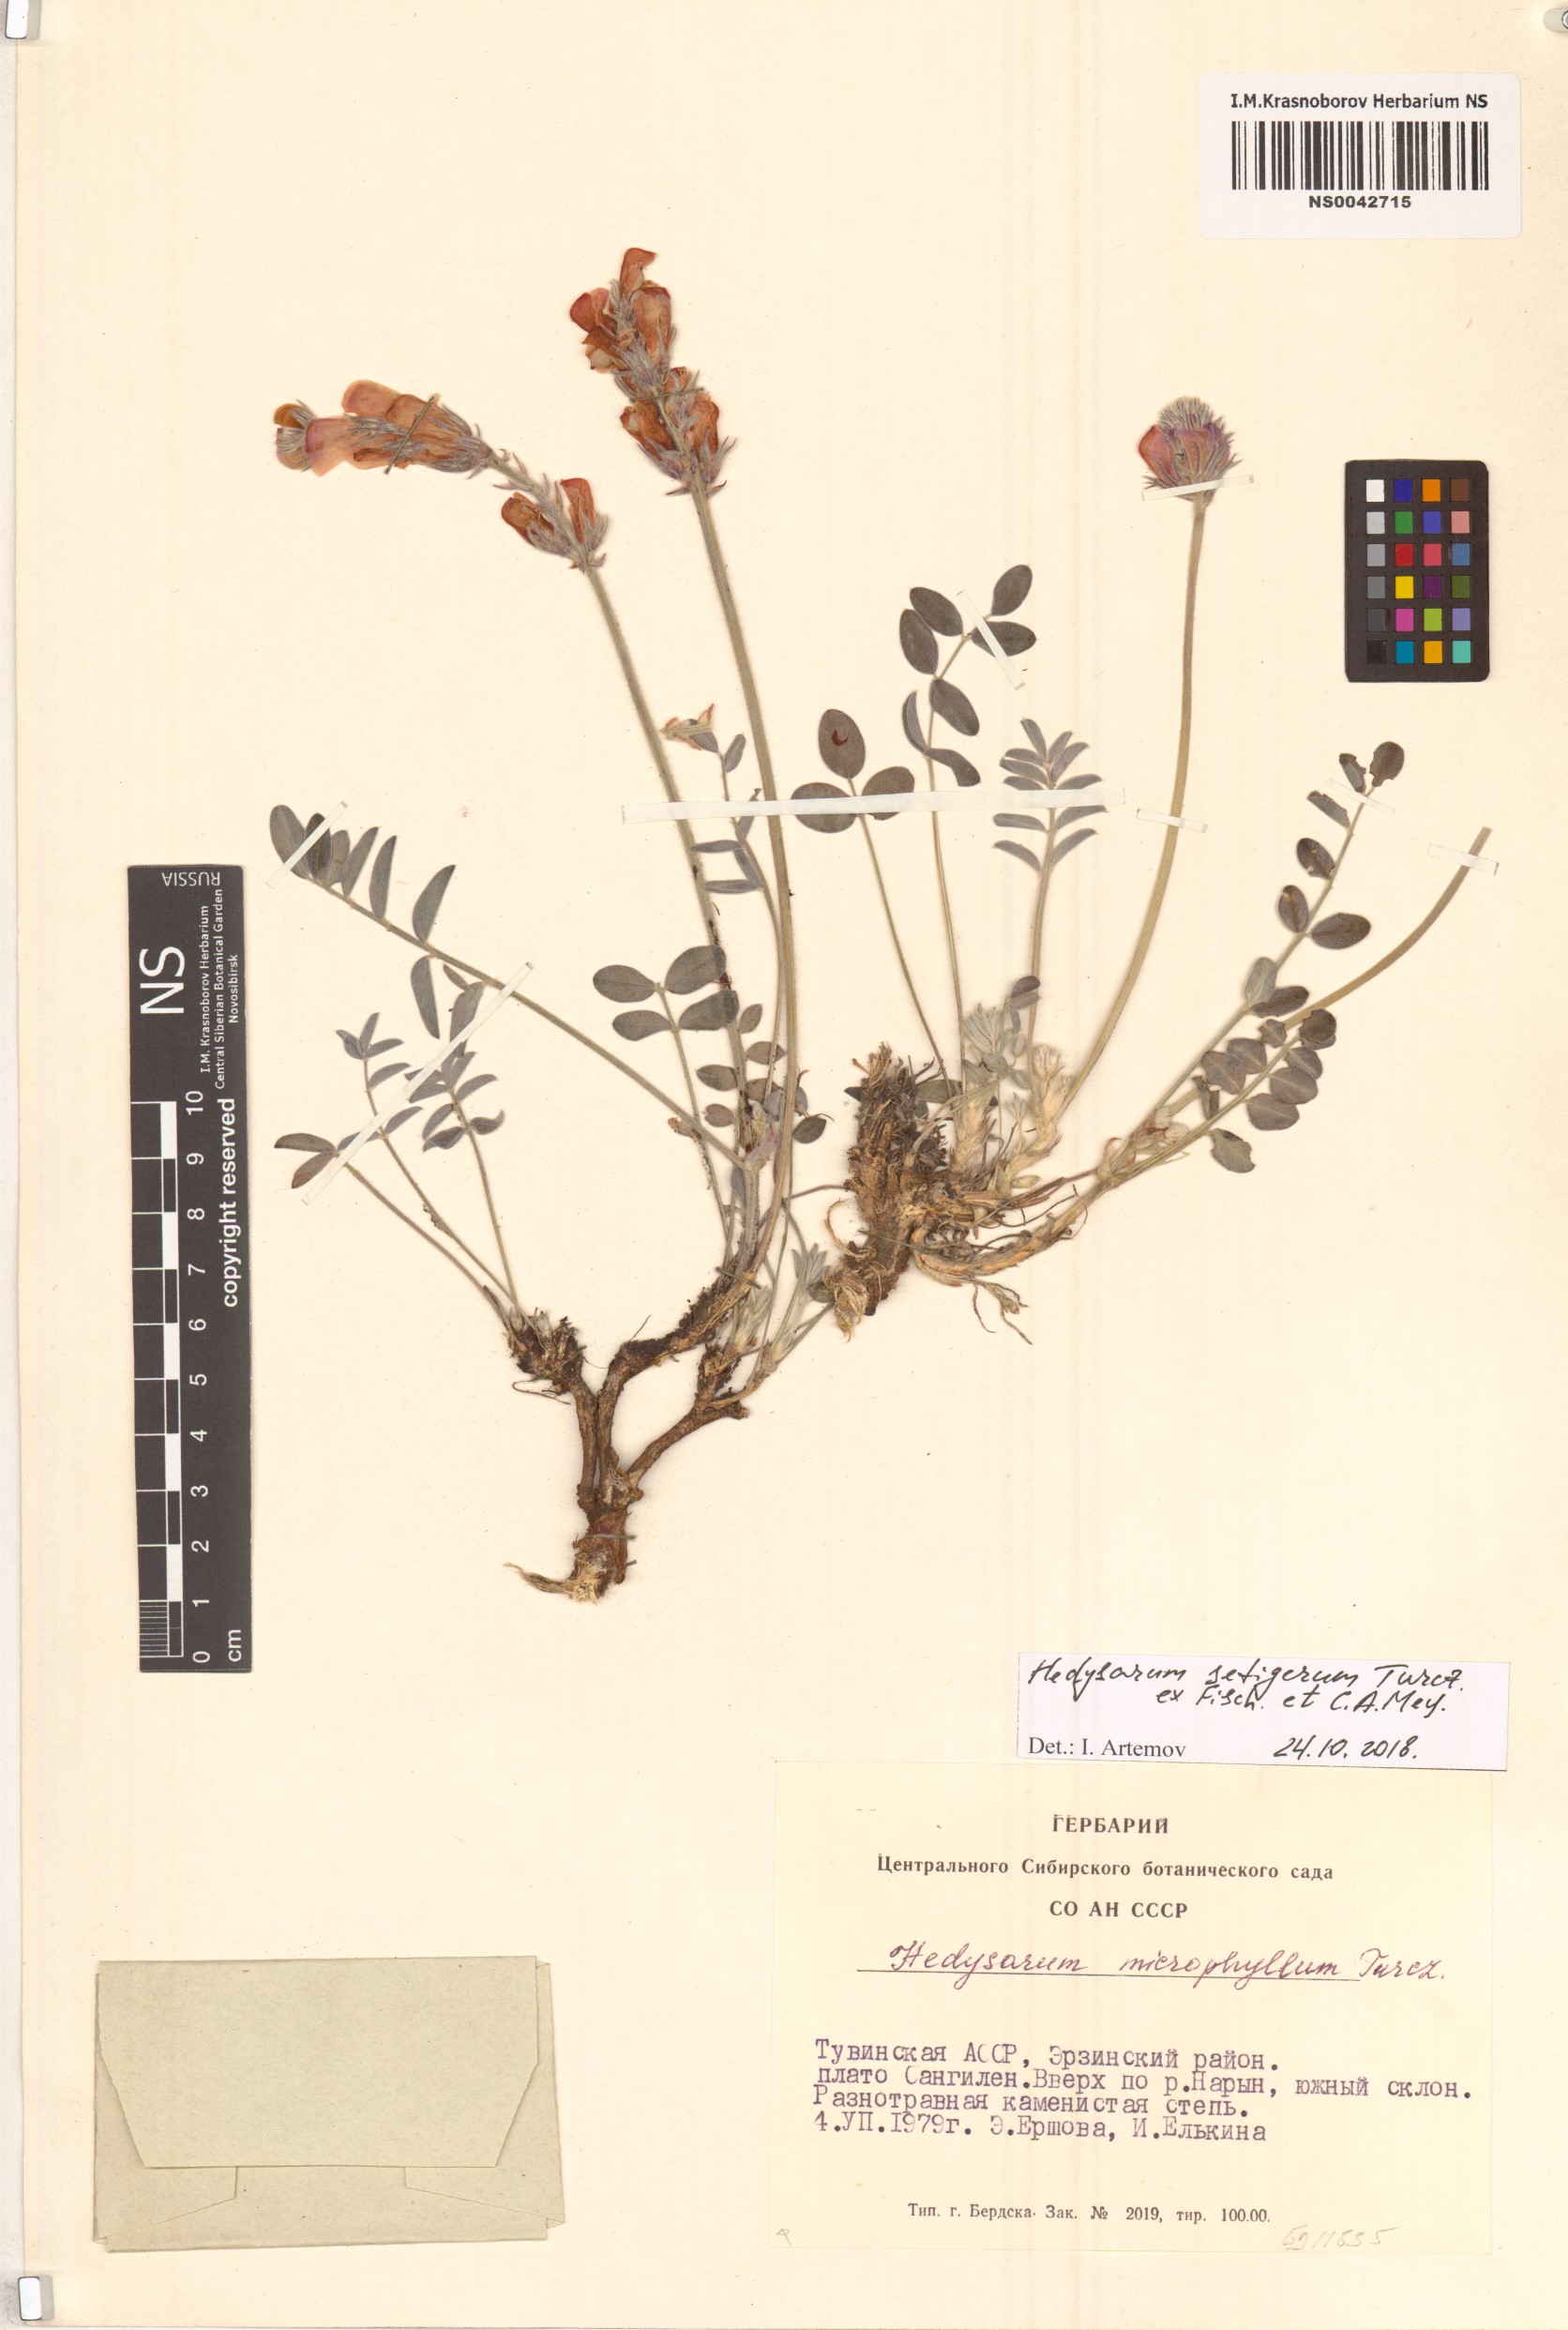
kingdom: Plantae
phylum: Tracheophyta
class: Magnoliopsida
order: Fabales
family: Fabaceae
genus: Hedysarum
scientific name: Hedysarum setigerum
